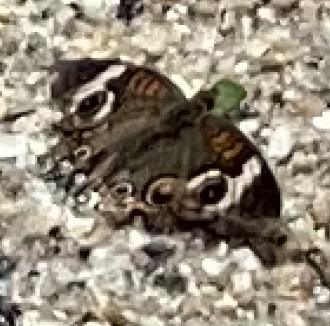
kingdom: Animalia
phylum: Arthropoda
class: Insecta
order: Lepidoptera
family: Nymphalidae
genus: Junonia
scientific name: Junonia coenia
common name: Common Buckeye
